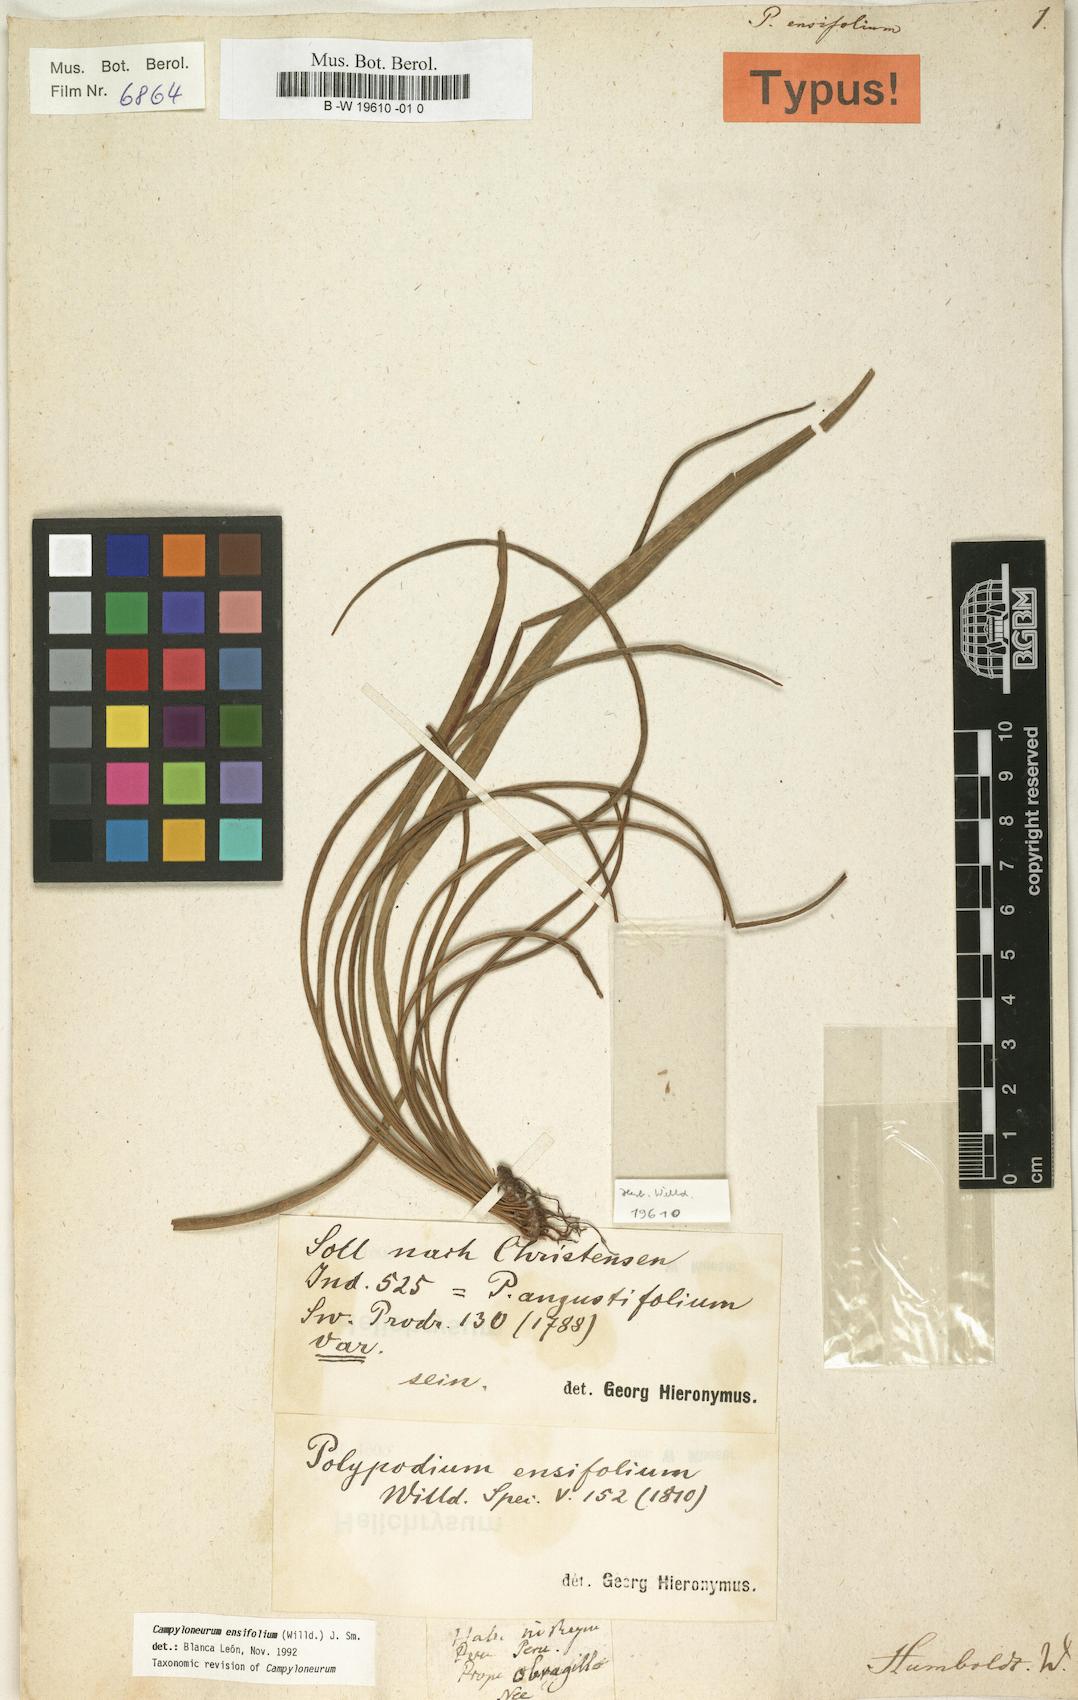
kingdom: Plantae
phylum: Tracheophyta
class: Polypodiopsida
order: Polypodiales
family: Polypodiaceae
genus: Campyloneurum
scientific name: Campyloneurum ensifolium
